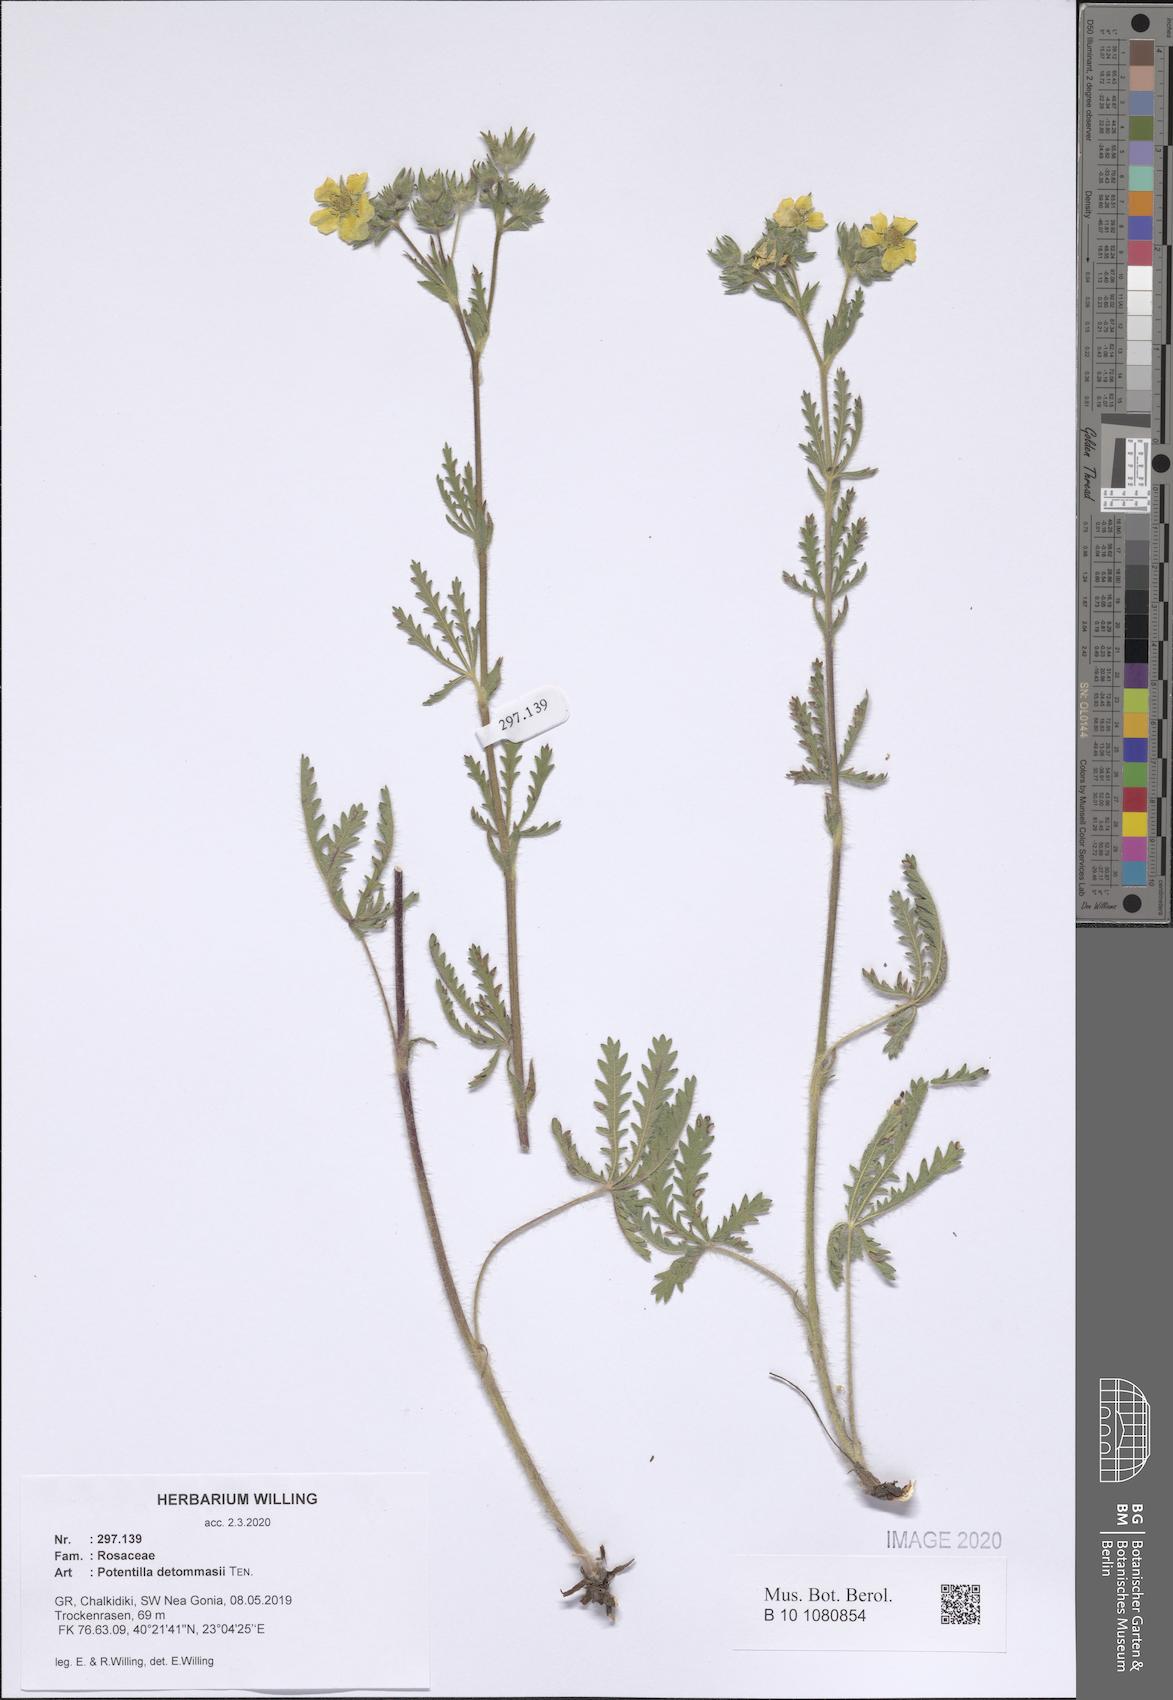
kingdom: Plantae
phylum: Tracheophyta
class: Magnoliopsida
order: Rosales
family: Rosaceae
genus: Potentilla
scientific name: Potentilla detommasii
